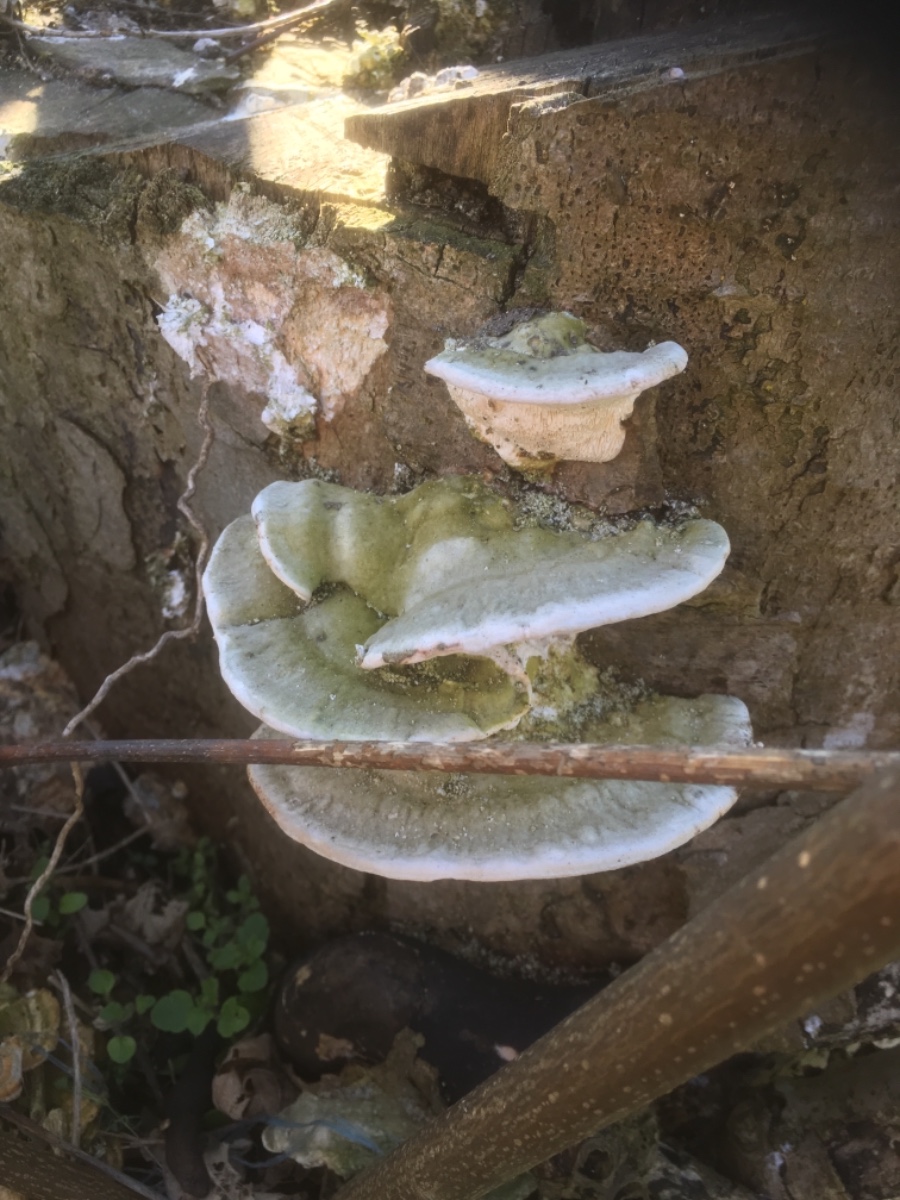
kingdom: Fungi
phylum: Basidiomycota
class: Agaricomycetes
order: Polyporales
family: Polyporaceae
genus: Trametes
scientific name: Trametes gibbosa
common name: puklet læderporesvamp
